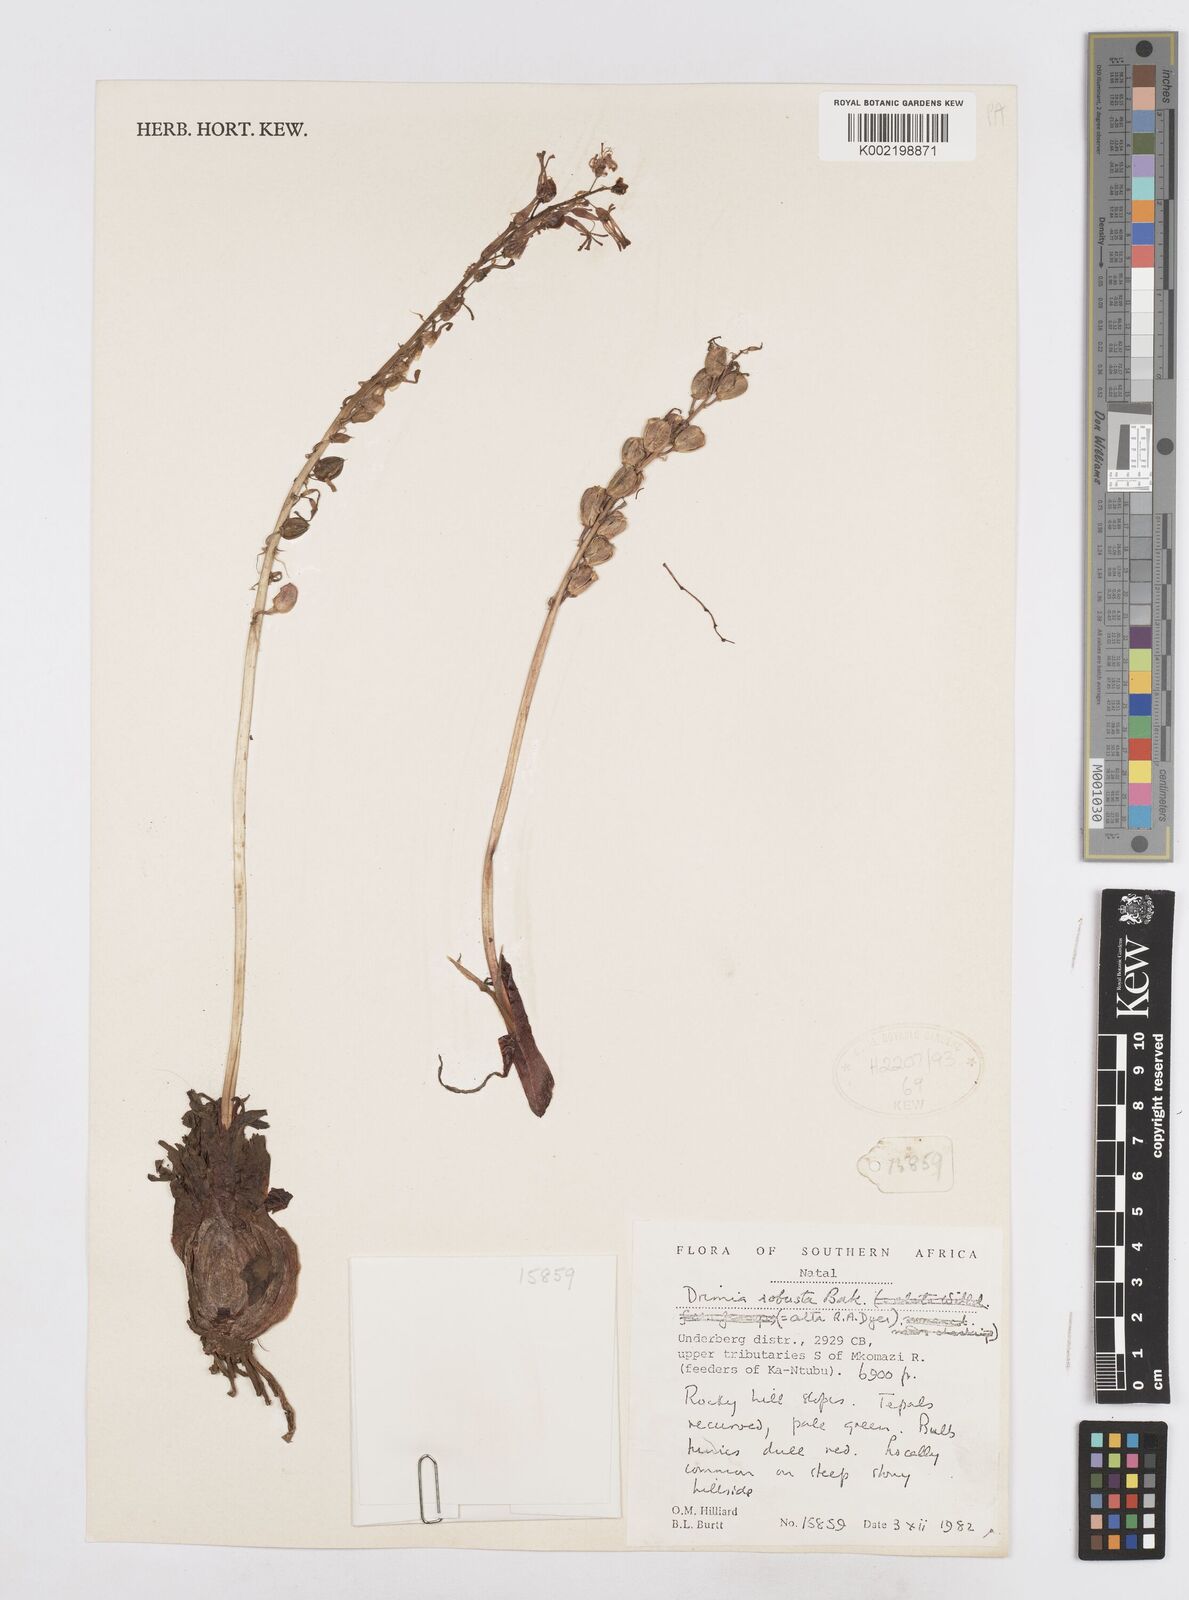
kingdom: Plantae
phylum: Tracheophyta
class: Liliopsida
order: Asparagales
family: Asparagaceae
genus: Drimia
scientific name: Drimia elata
